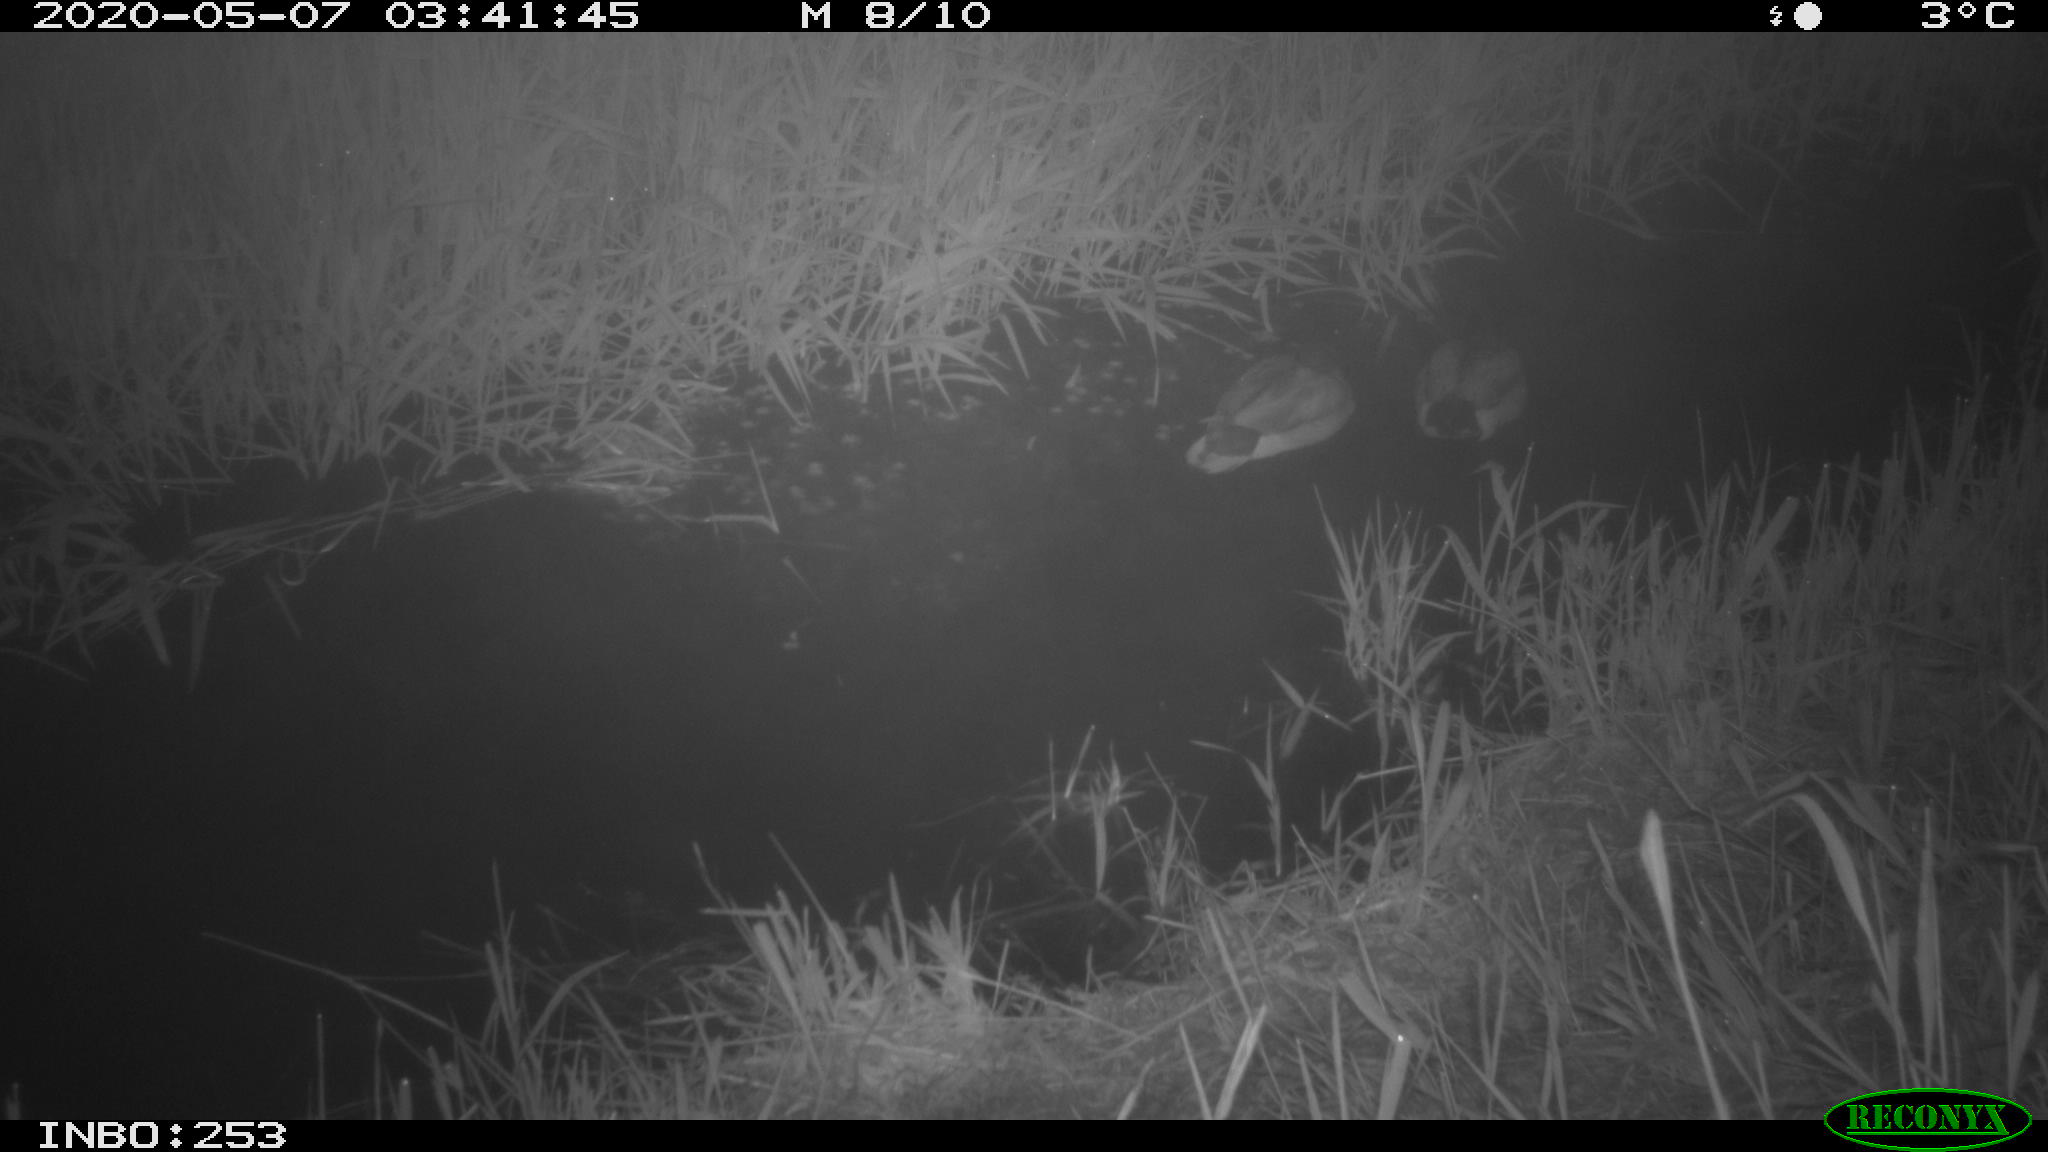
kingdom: Animalia
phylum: Chordata
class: Aves
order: Anseriformes
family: Anatidae
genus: Anas
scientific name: Anas platyrhynchos
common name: Mallard
